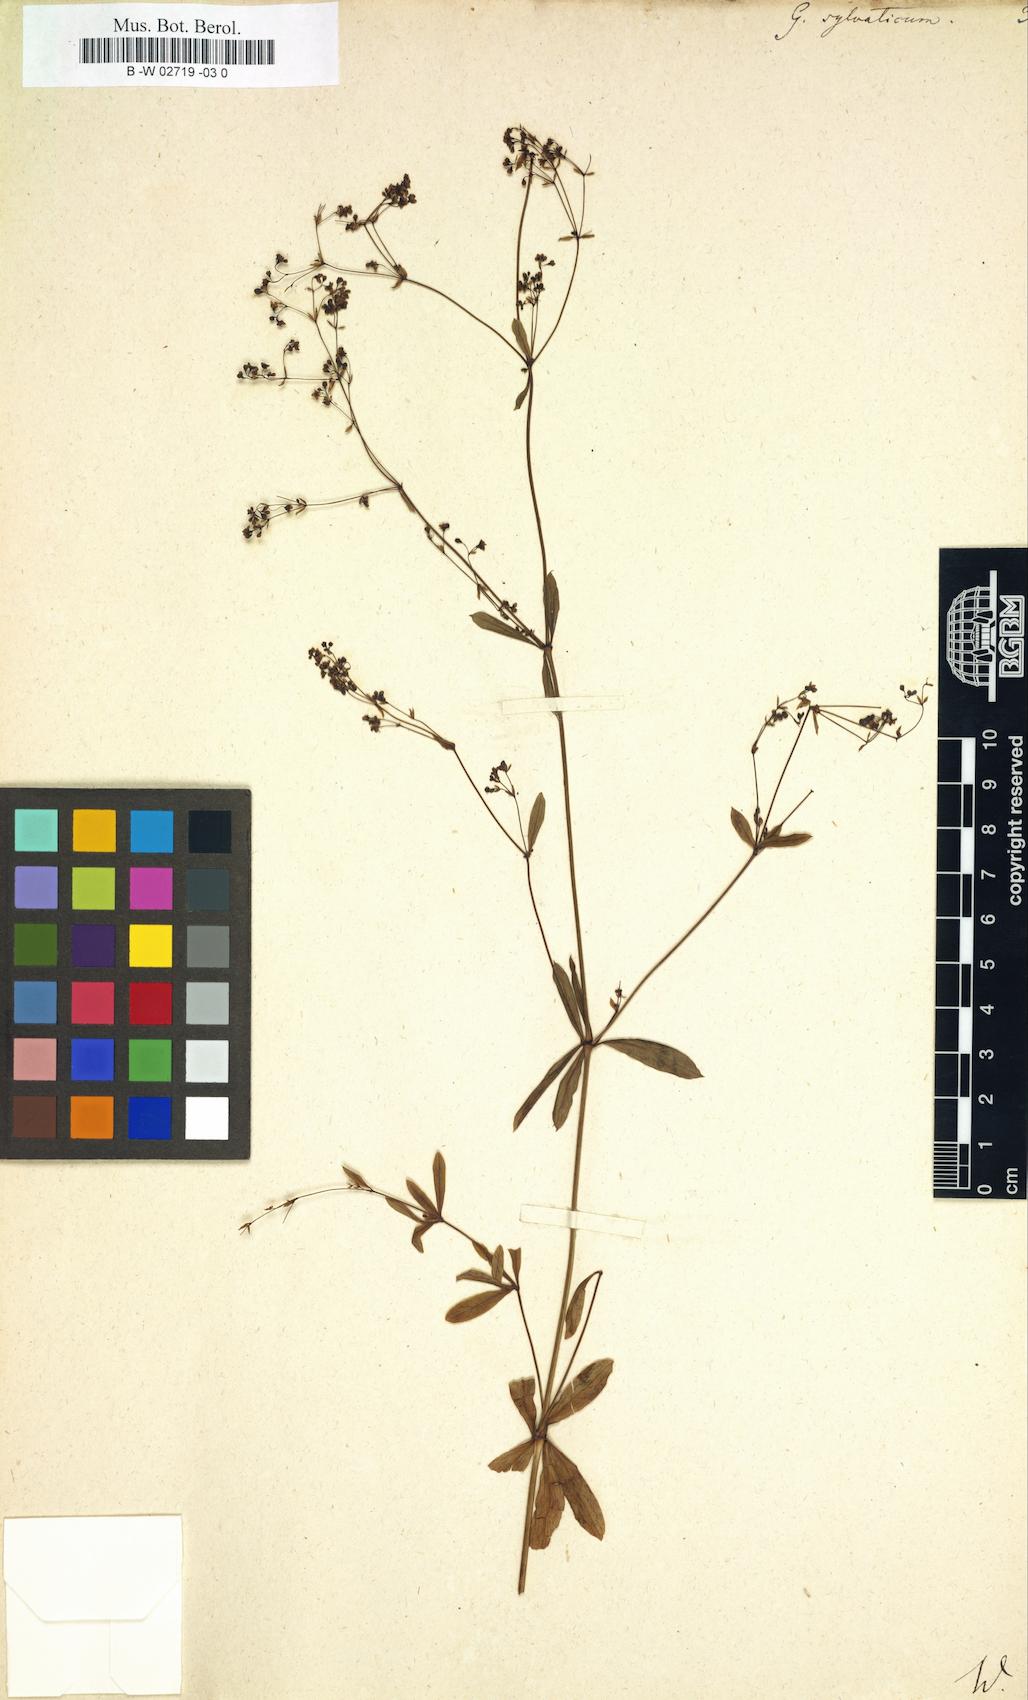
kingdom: Plantae
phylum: Tracheophyta
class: Magnoliopsida
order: Gentianales
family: Rubiaceae
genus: Galium
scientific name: Galium sylvaticum
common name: Wood bedstraw
